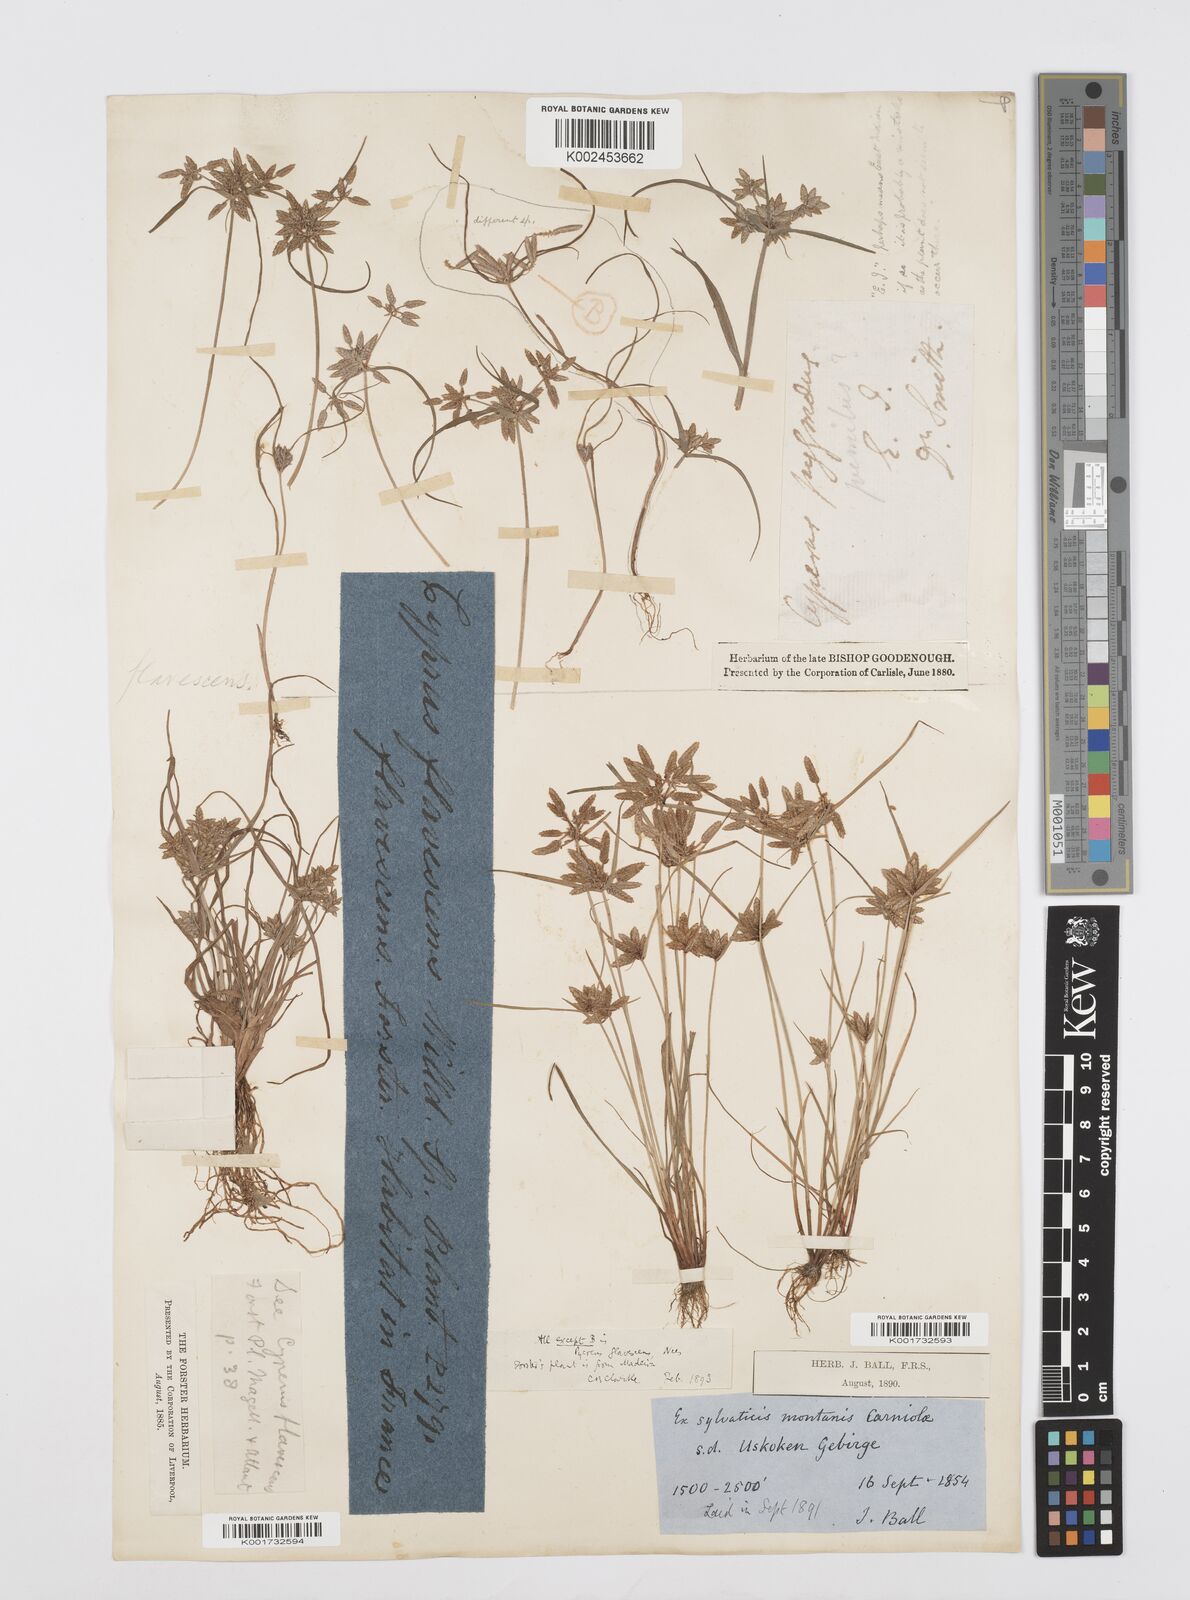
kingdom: Plantae
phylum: Tracheophyta
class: Liliopsida
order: Poales
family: Cyperaceae
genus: Cyperus
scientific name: Cyperus flavescens
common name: Yellow galingale
